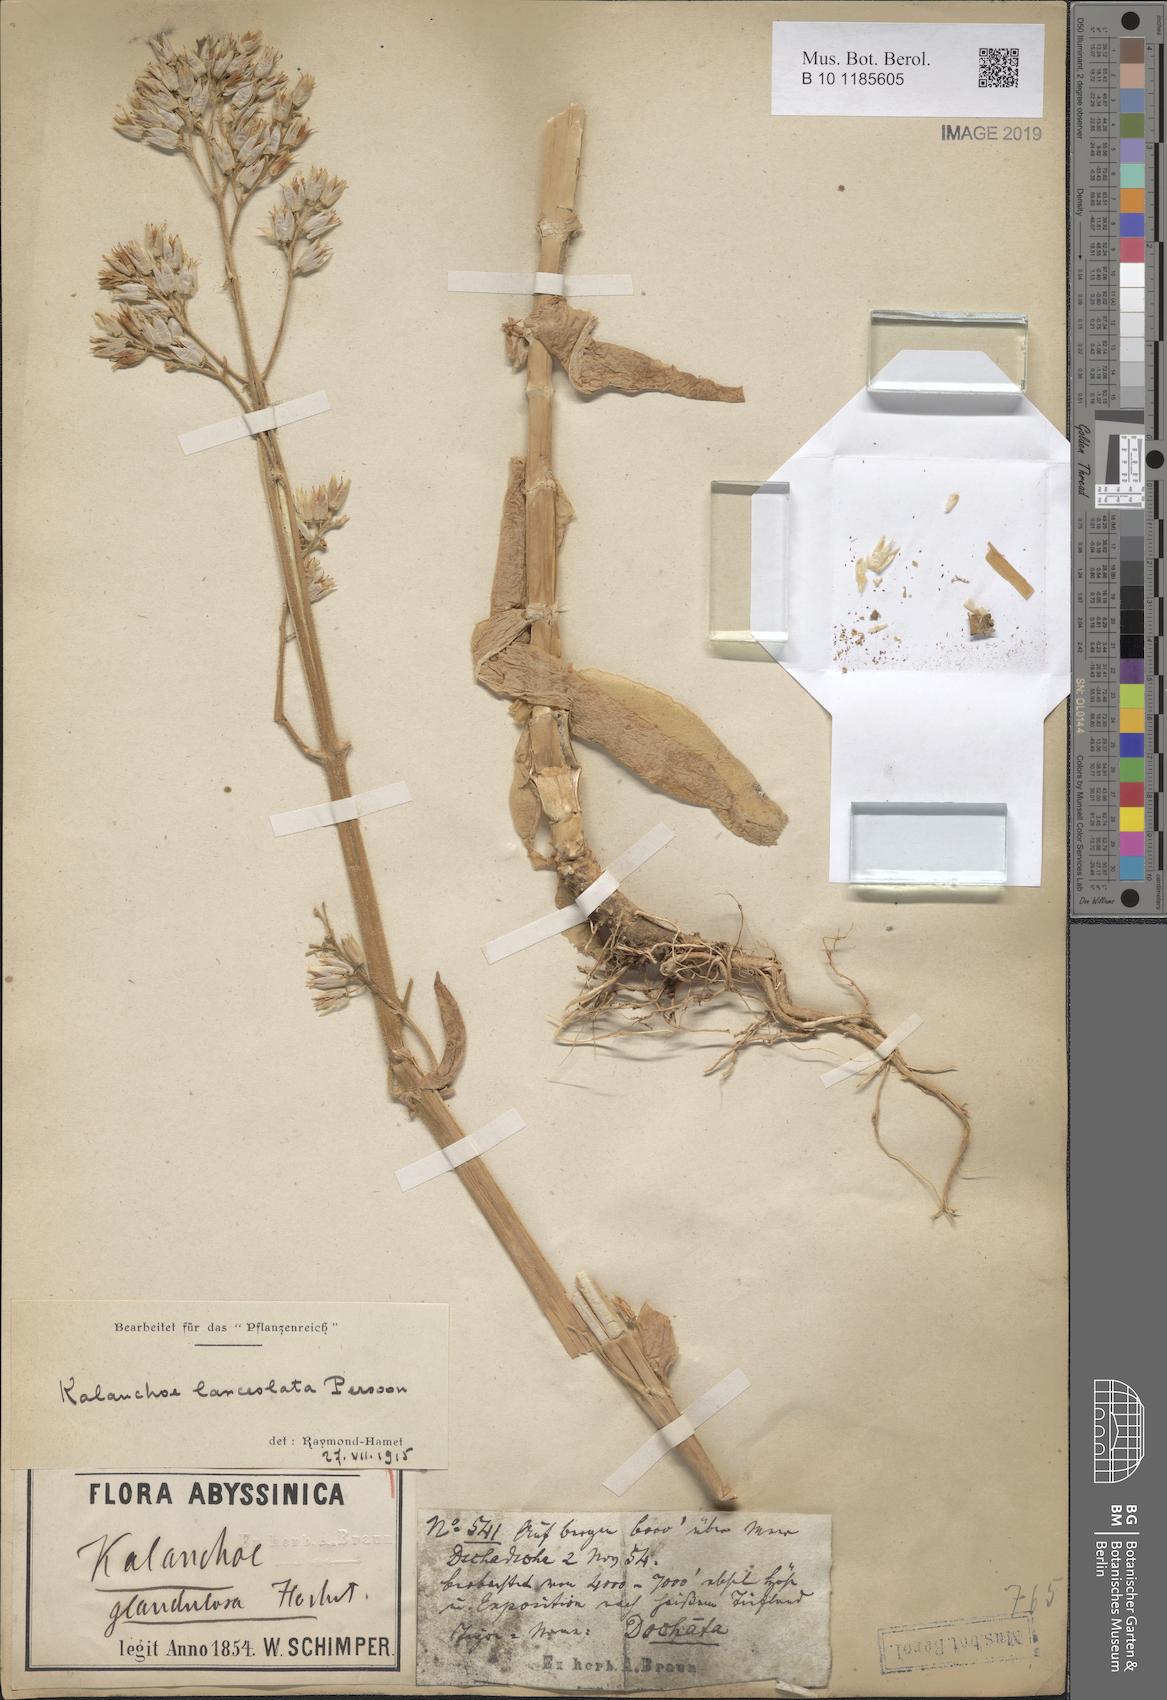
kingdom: Plantae
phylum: Tracheophyta
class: Magnoliopsida
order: Saxifragales
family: Crassulaceae
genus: Kalanchoe
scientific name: Kalanchoe lanceolata
